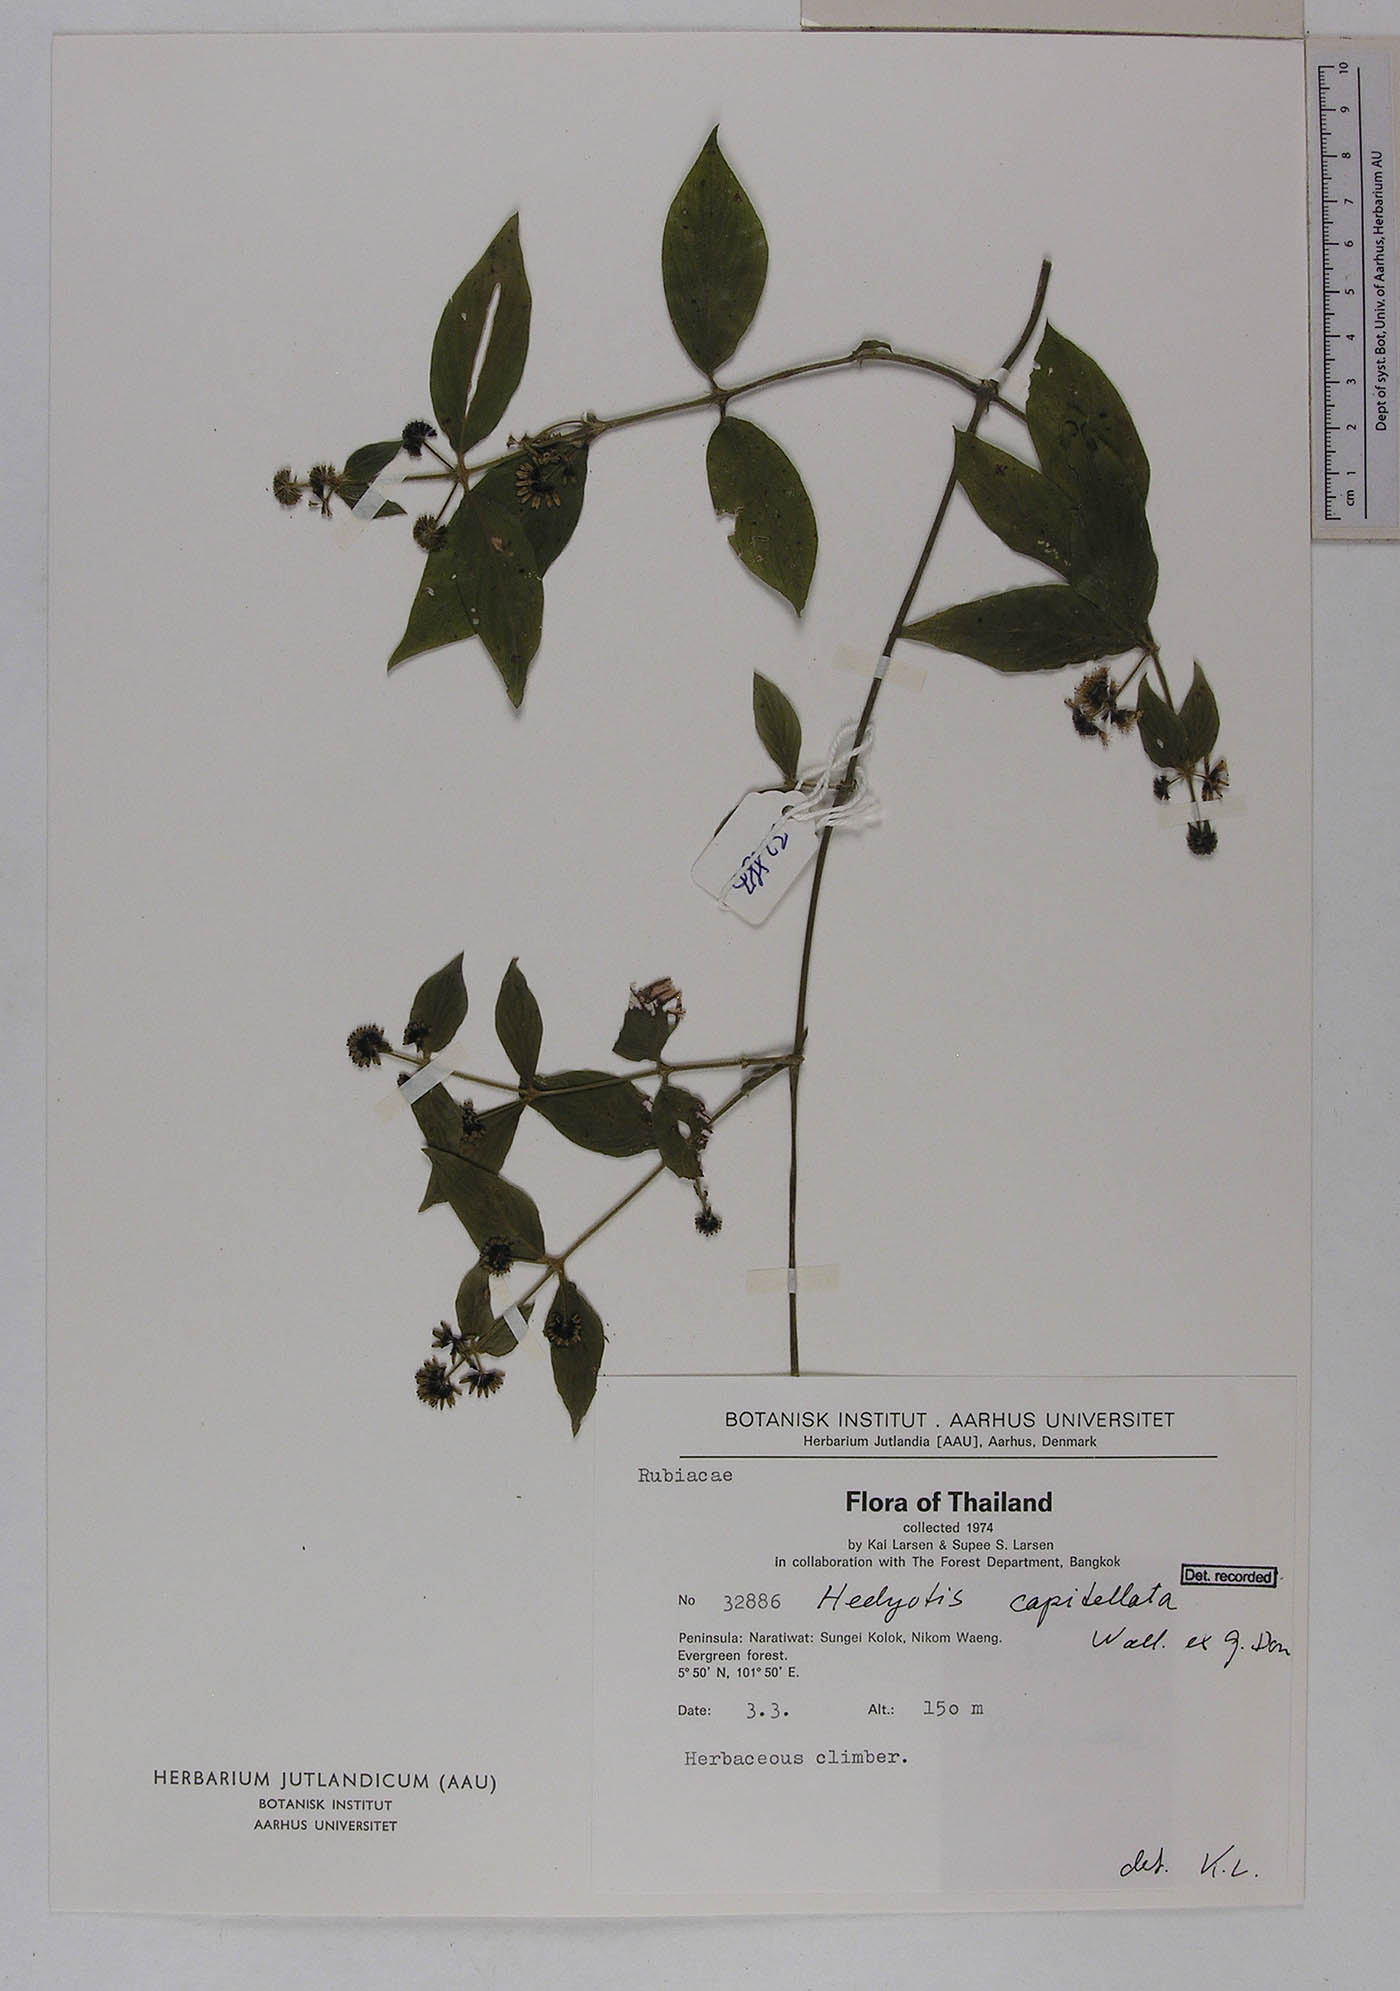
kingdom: Plantae
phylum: Tracheophyta
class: Magnoliopsida
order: Gentianales
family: Rubiaceae
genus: Hedyotis
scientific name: Hedyotis capitellata
